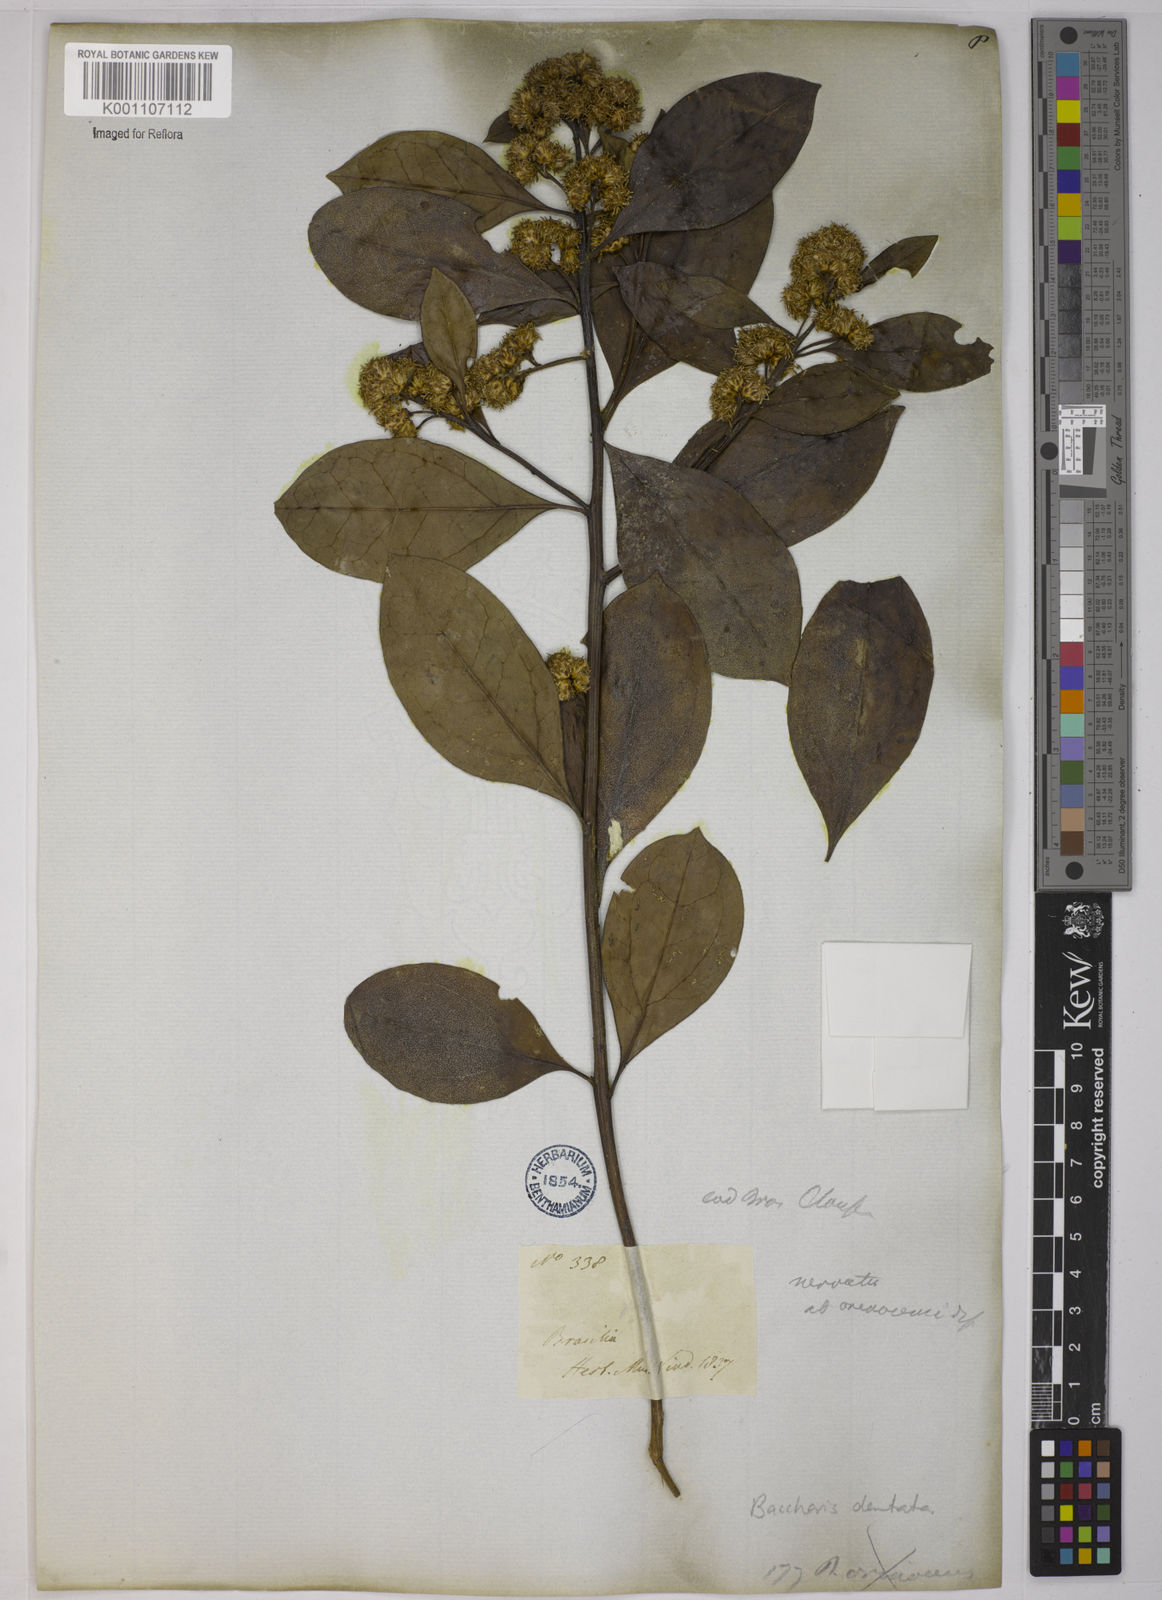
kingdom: Plantae
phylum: Tracheophyta
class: Magnoliopsida
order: Asterales
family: Asteraceae
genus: Baccharis
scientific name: Baccharis dentata
